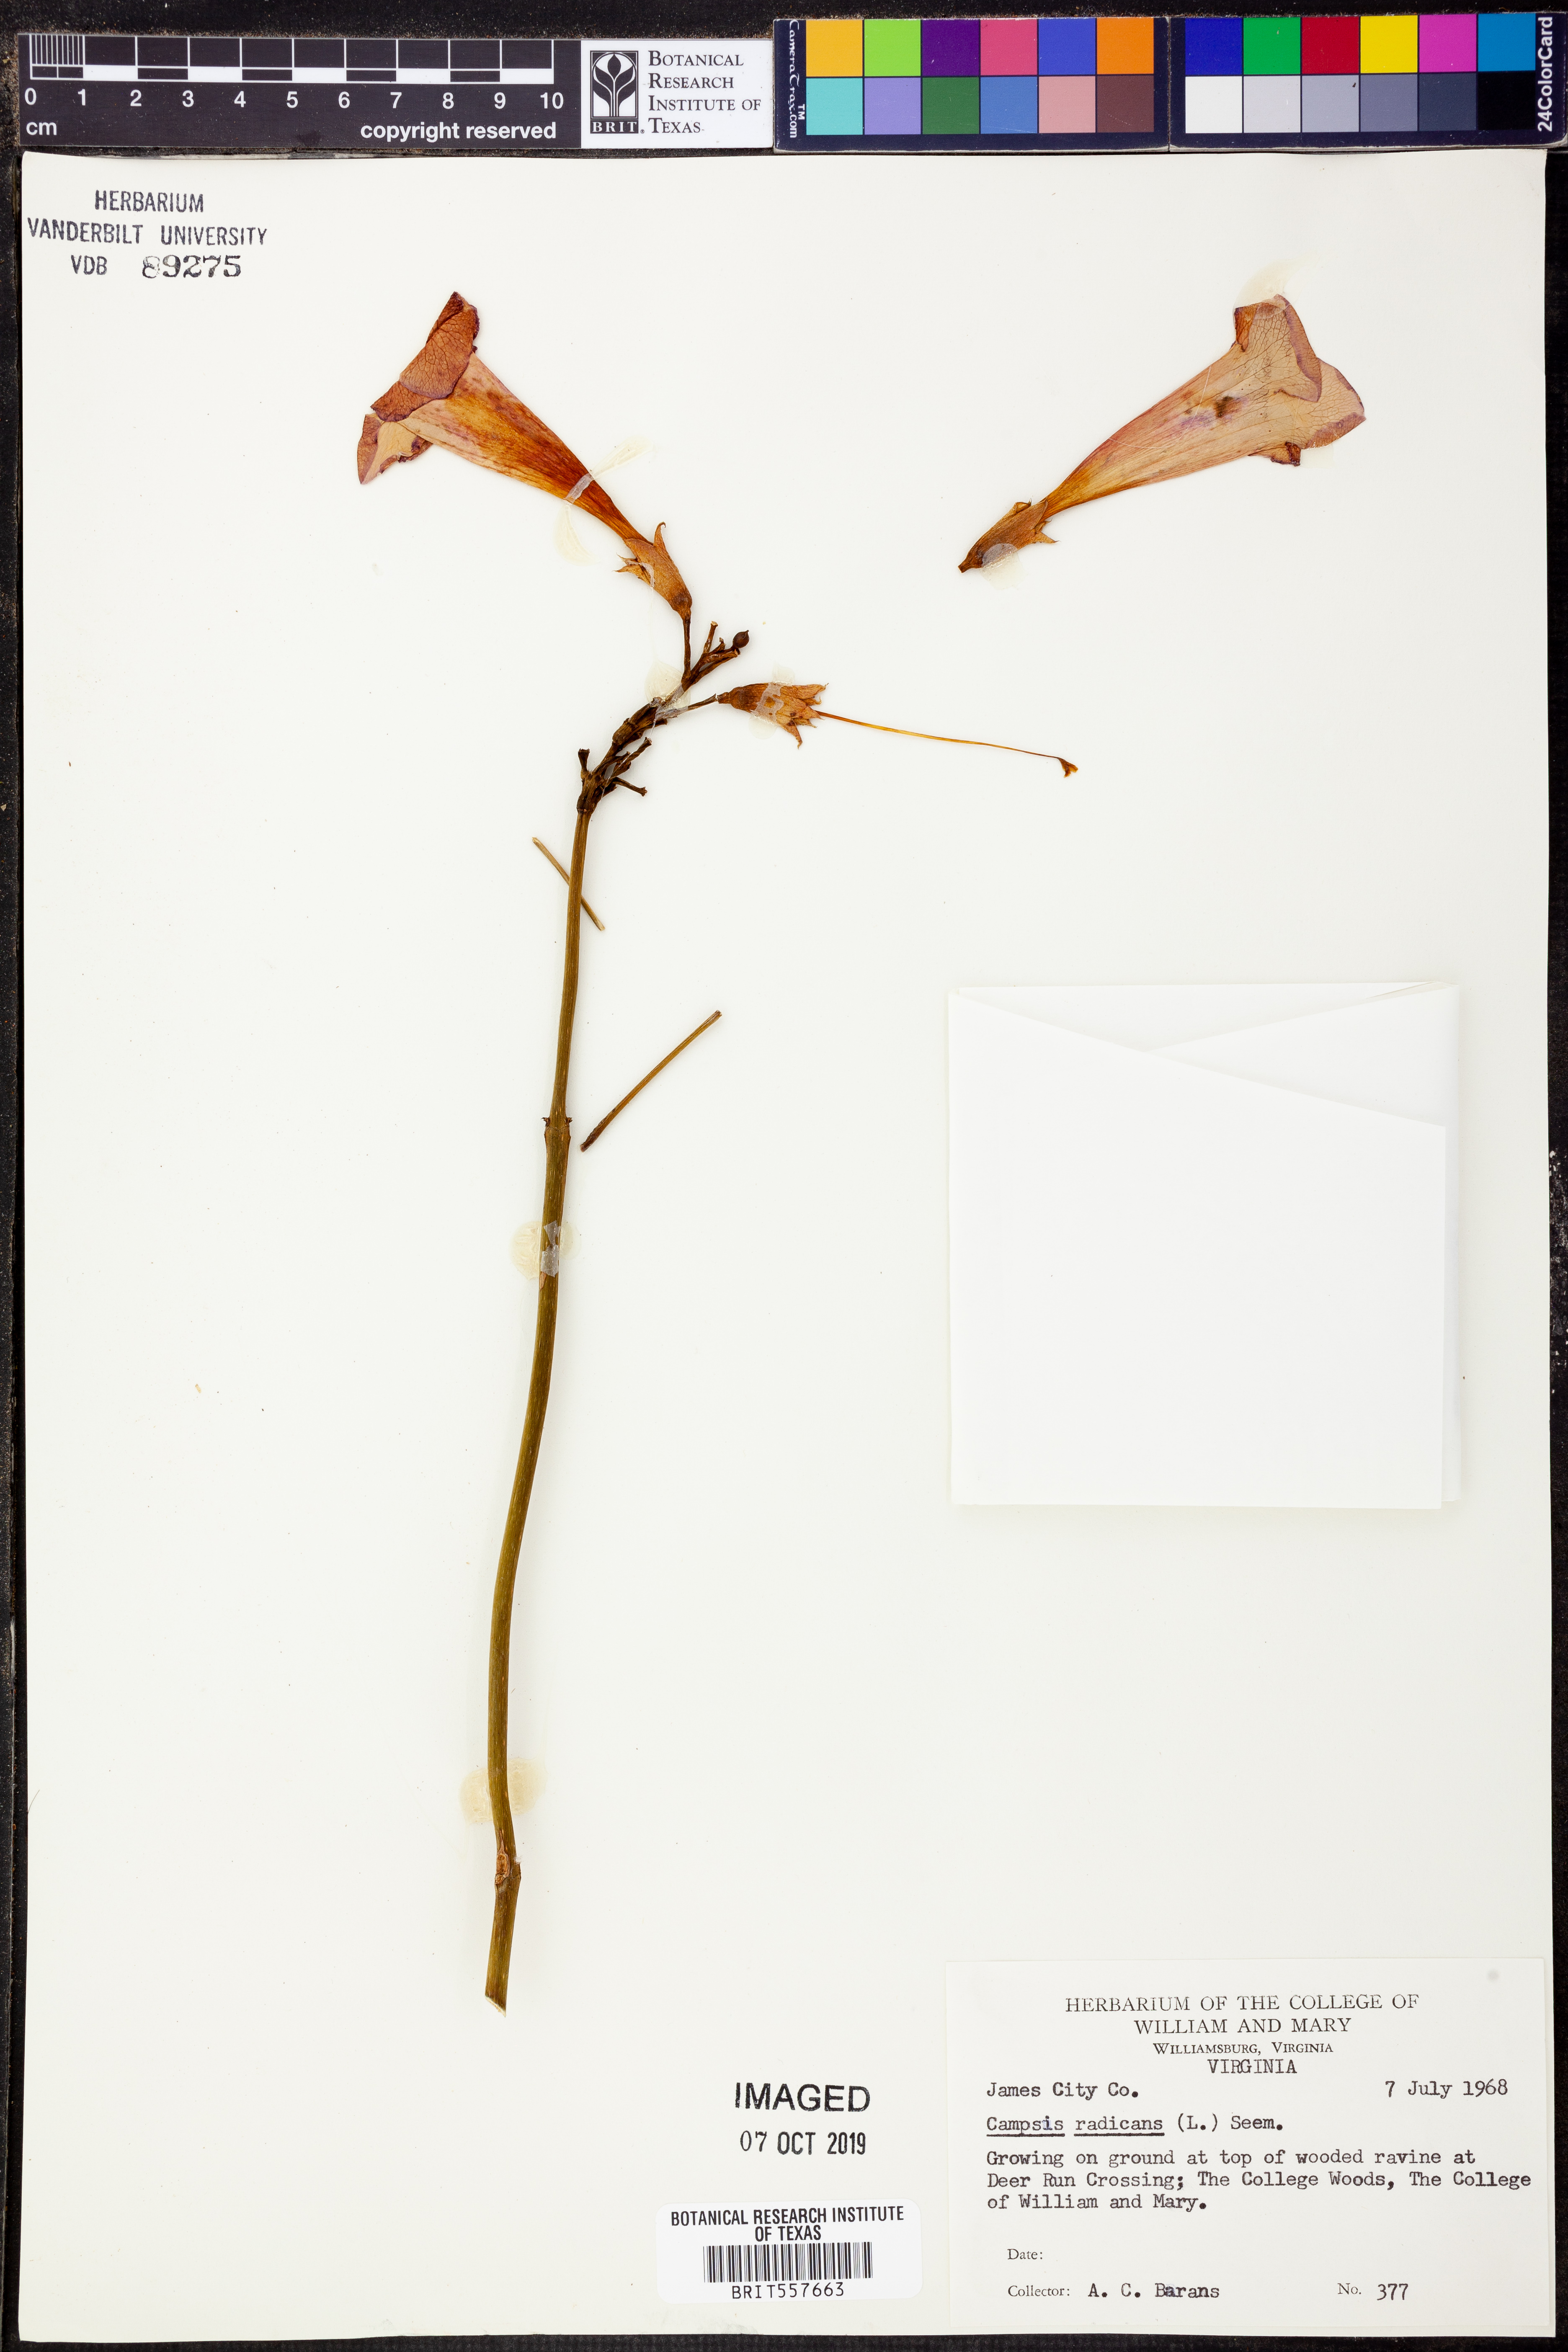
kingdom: Plantae
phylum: Tracheophyta
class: Magnoliopsida
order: Lamiales
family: Bignoniaceae
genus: Campsis
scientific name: Campsis radicans
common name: Trumpet-creeper
